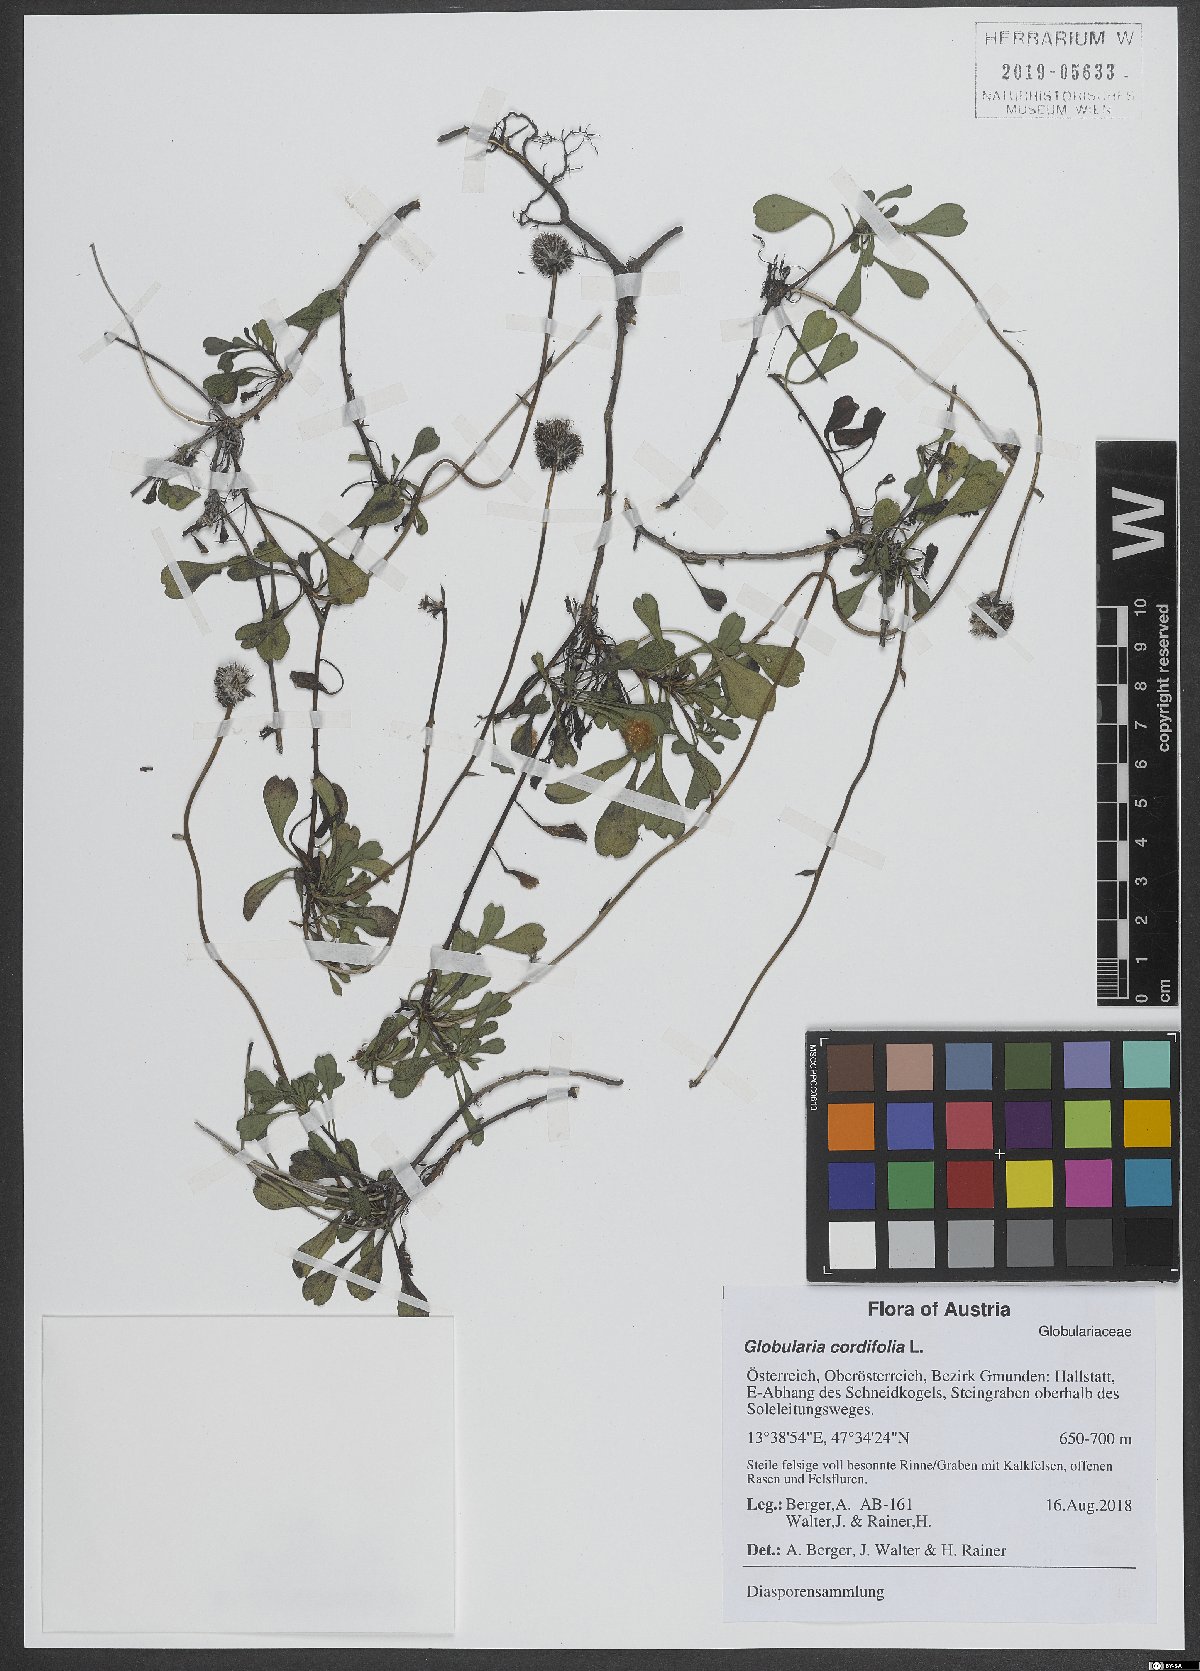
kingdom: Plantae
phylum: Tracheophyta
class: Magnoliopsida
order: Lamiales
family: Plantaginaceae
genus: Globularia
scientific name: Globularia cordifolia
